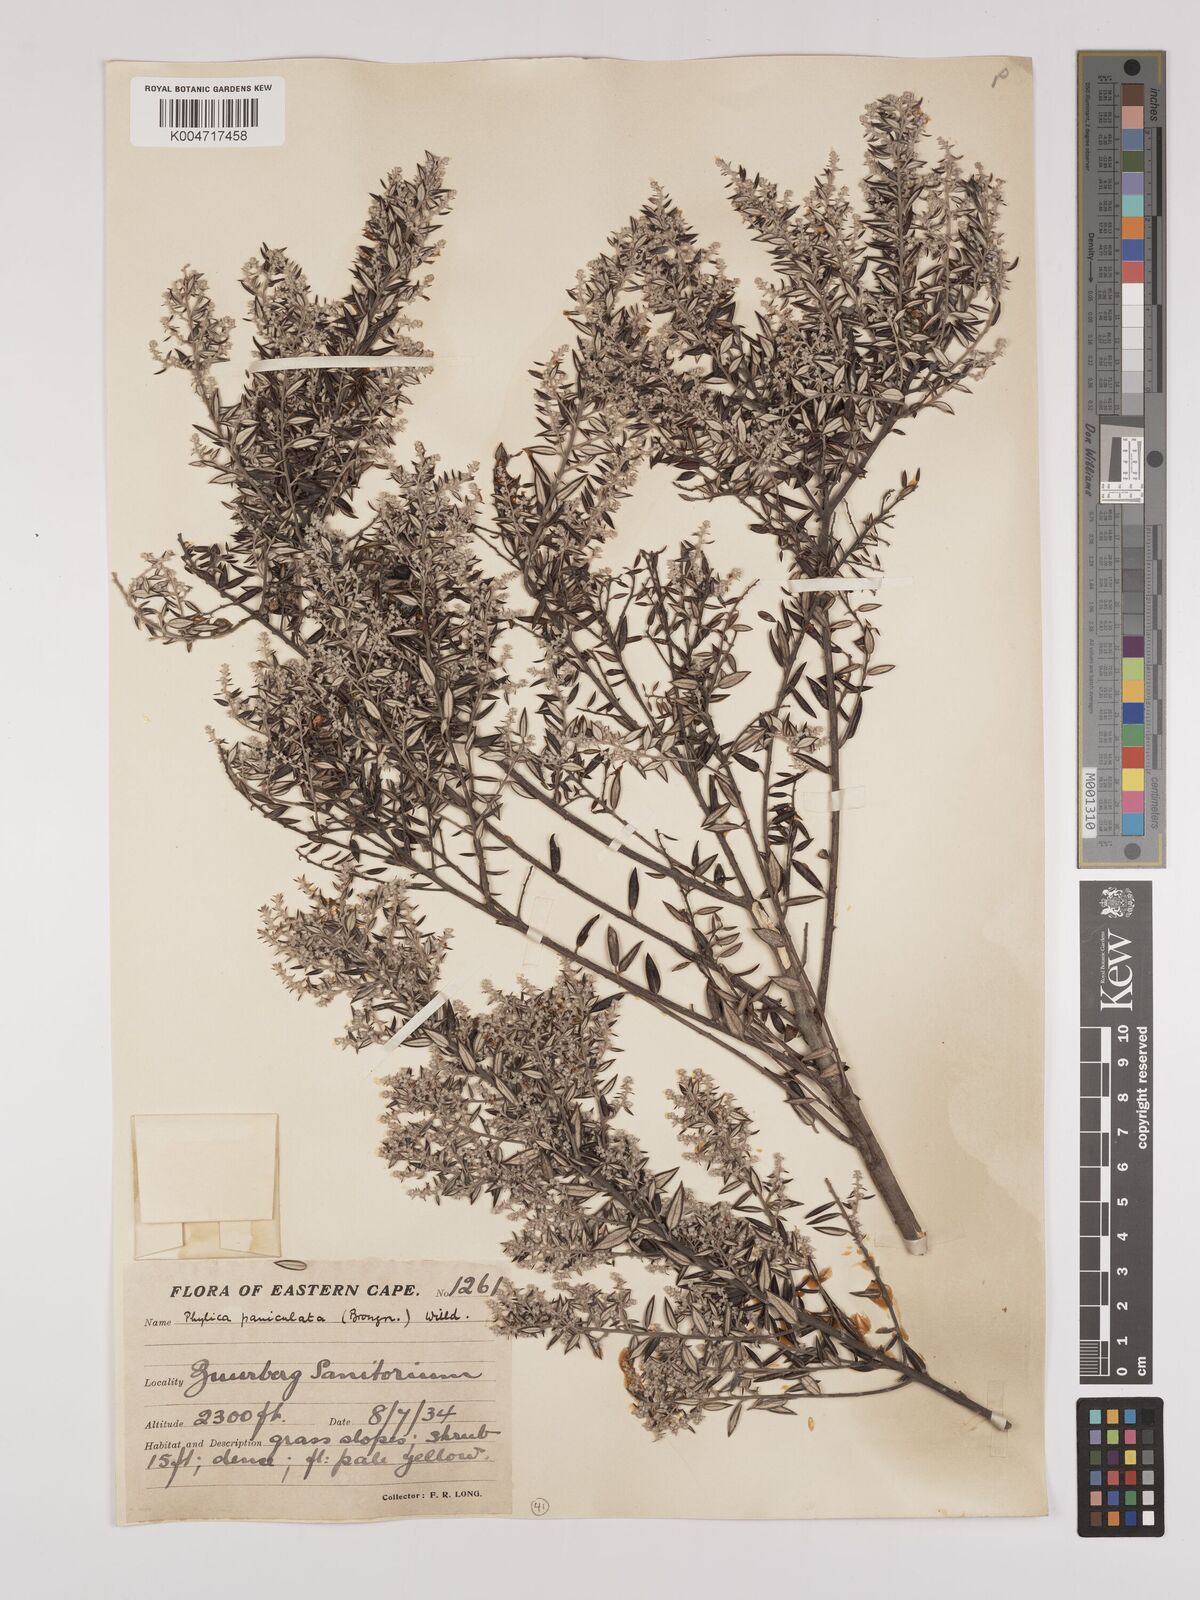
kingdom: Plantae
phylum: Tracheophyta
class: Magnoliopsida
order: Rosales
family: Rhamnaceae
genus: Phylica
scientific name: Phylica paniculata
